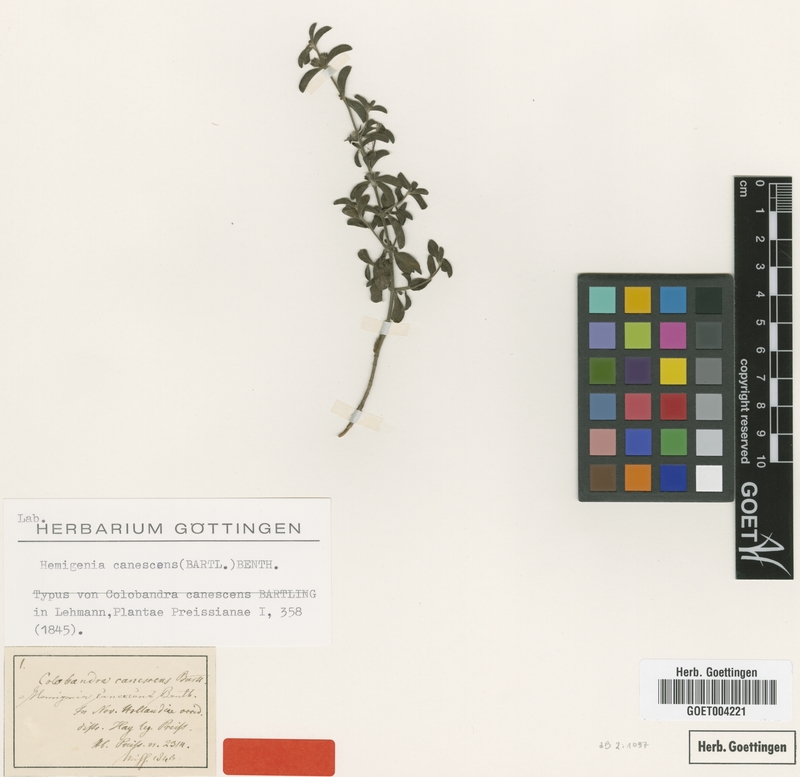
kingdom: Plantae
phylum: Tracheophyta
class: Magnoliopsida
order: Lamiales
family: Lamiaceae
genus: Hemigenia
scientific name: Hemigenia canescens
